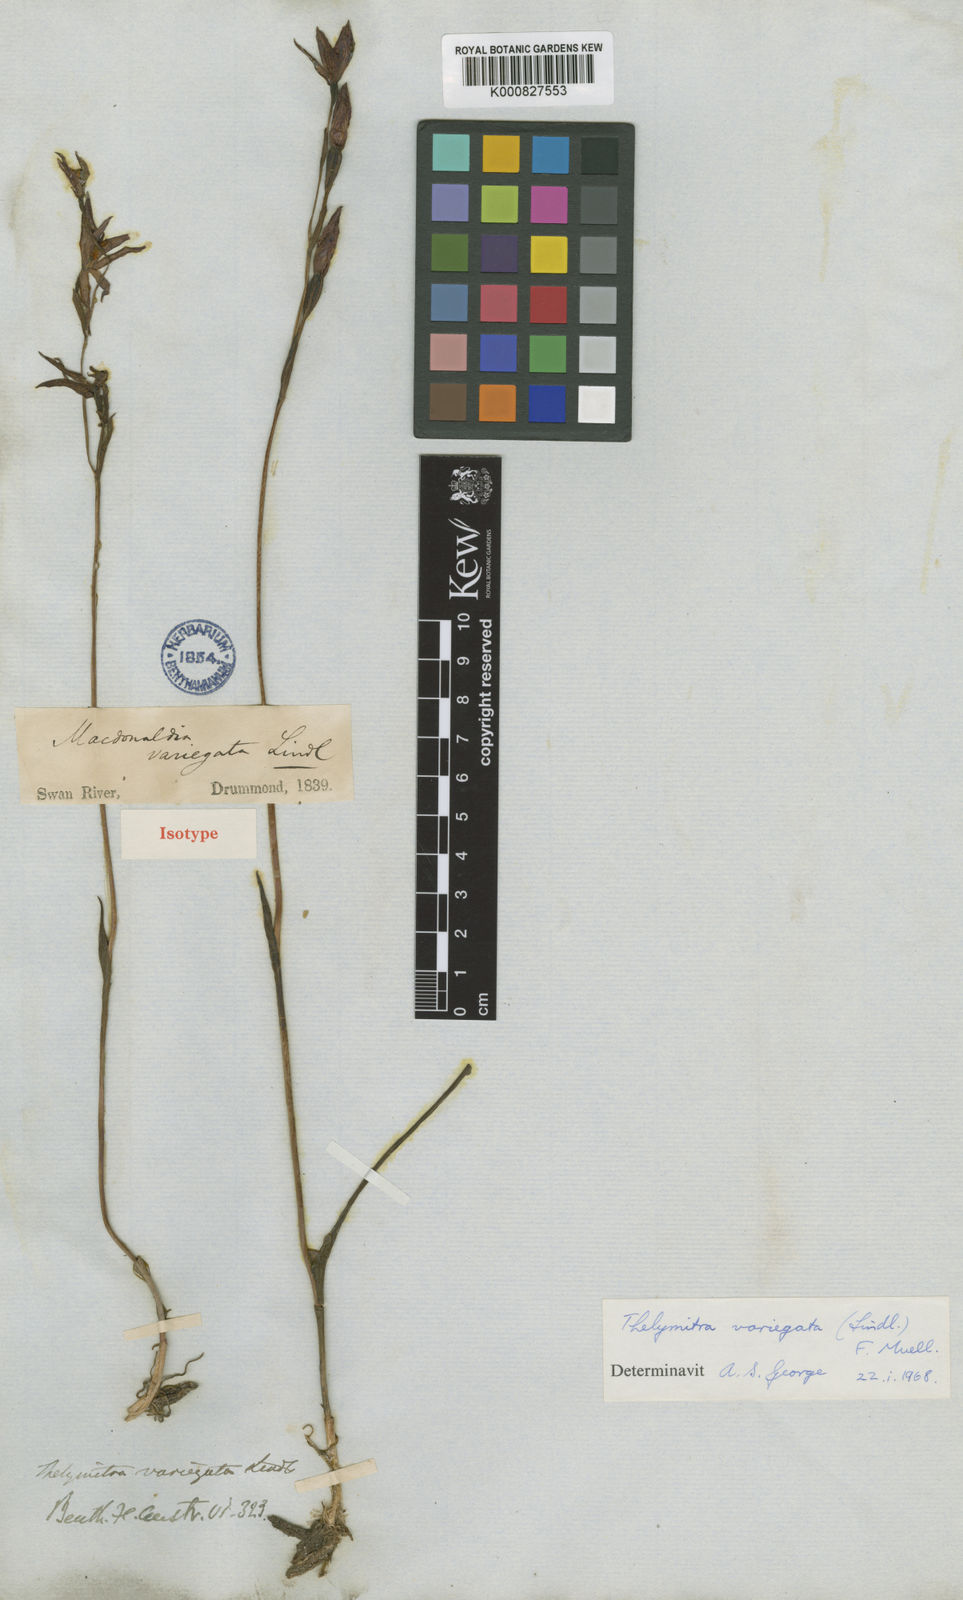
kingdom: Plantae
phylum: Tracheophyta
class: Liliopsida
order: Asparagales
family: Orchidaceae
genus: Thelymitra
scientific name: Thelymitra variegata
